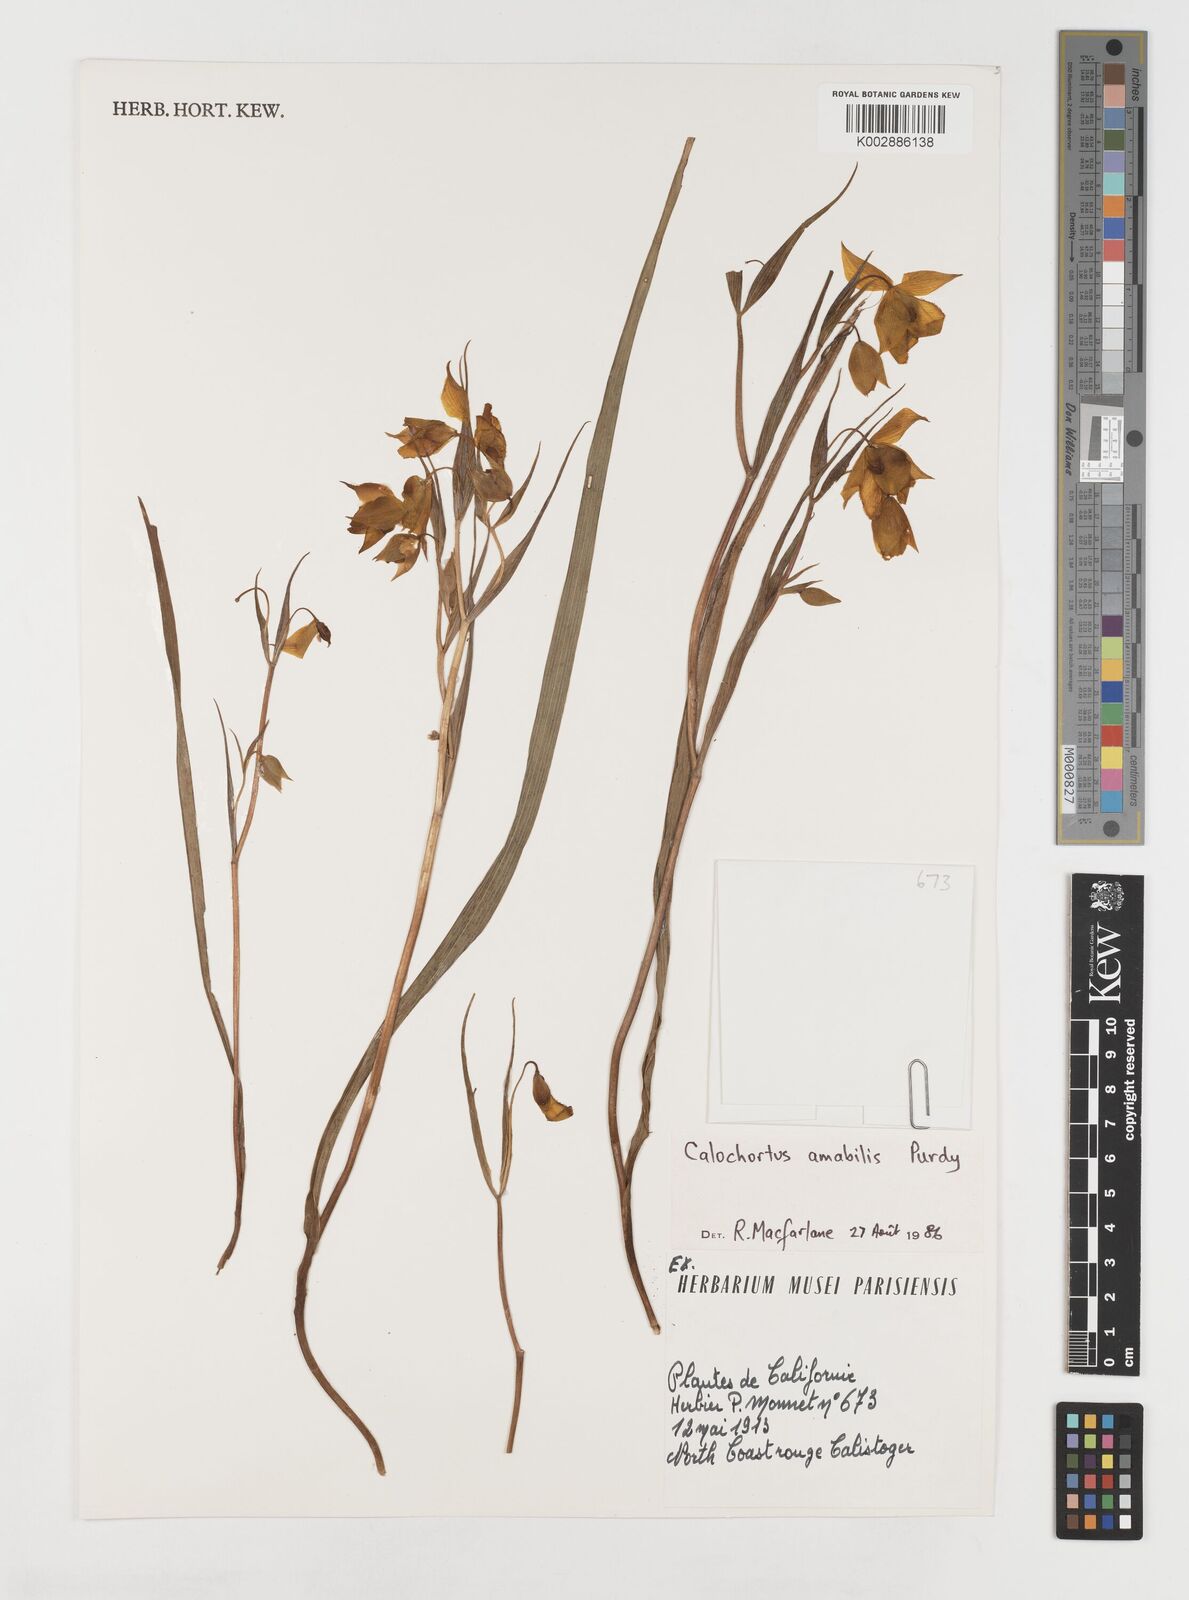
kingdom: Plantae
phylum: Tracheophyta
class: Liliopsida
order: Liliales
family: Liliaceae
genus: Calochortus
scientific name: Calochortus amabilis
